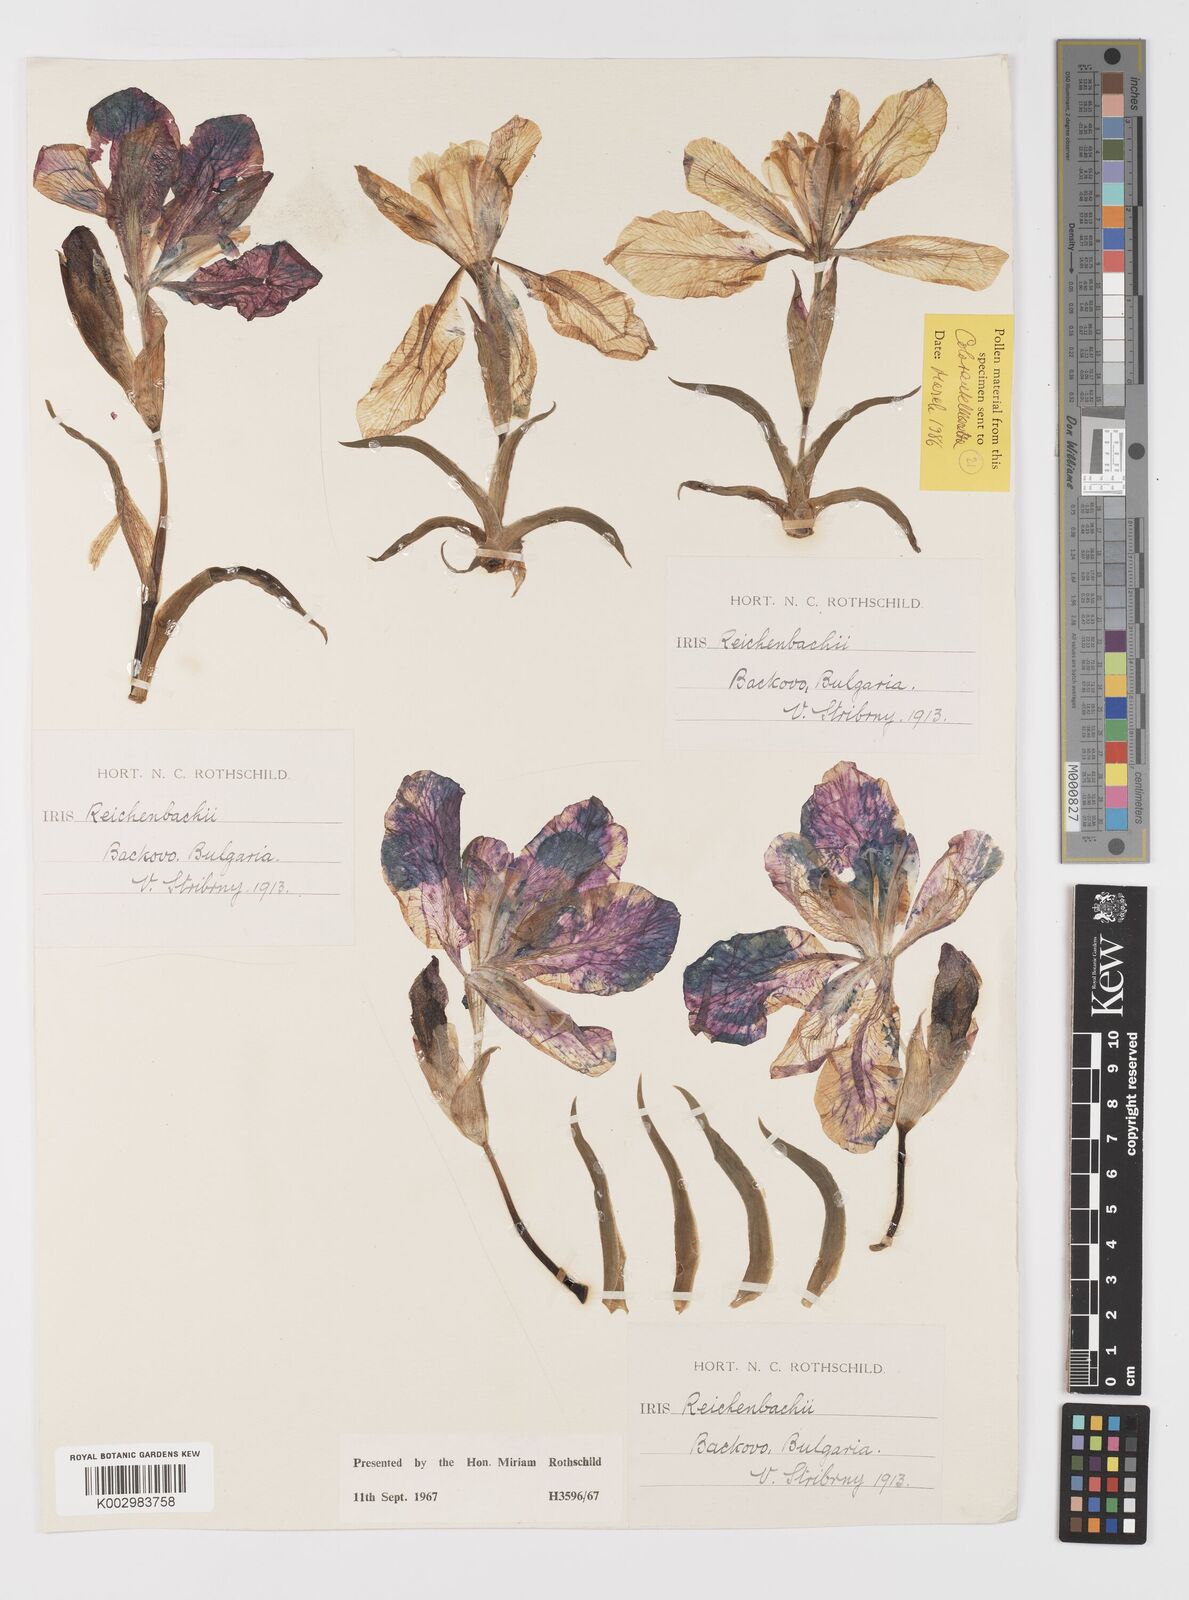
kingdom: Plantae
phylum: Tracheophyta
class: Liliopsida
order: Asparagales
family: Iridaceae
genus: Iris
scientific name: Iris reichenbachii
